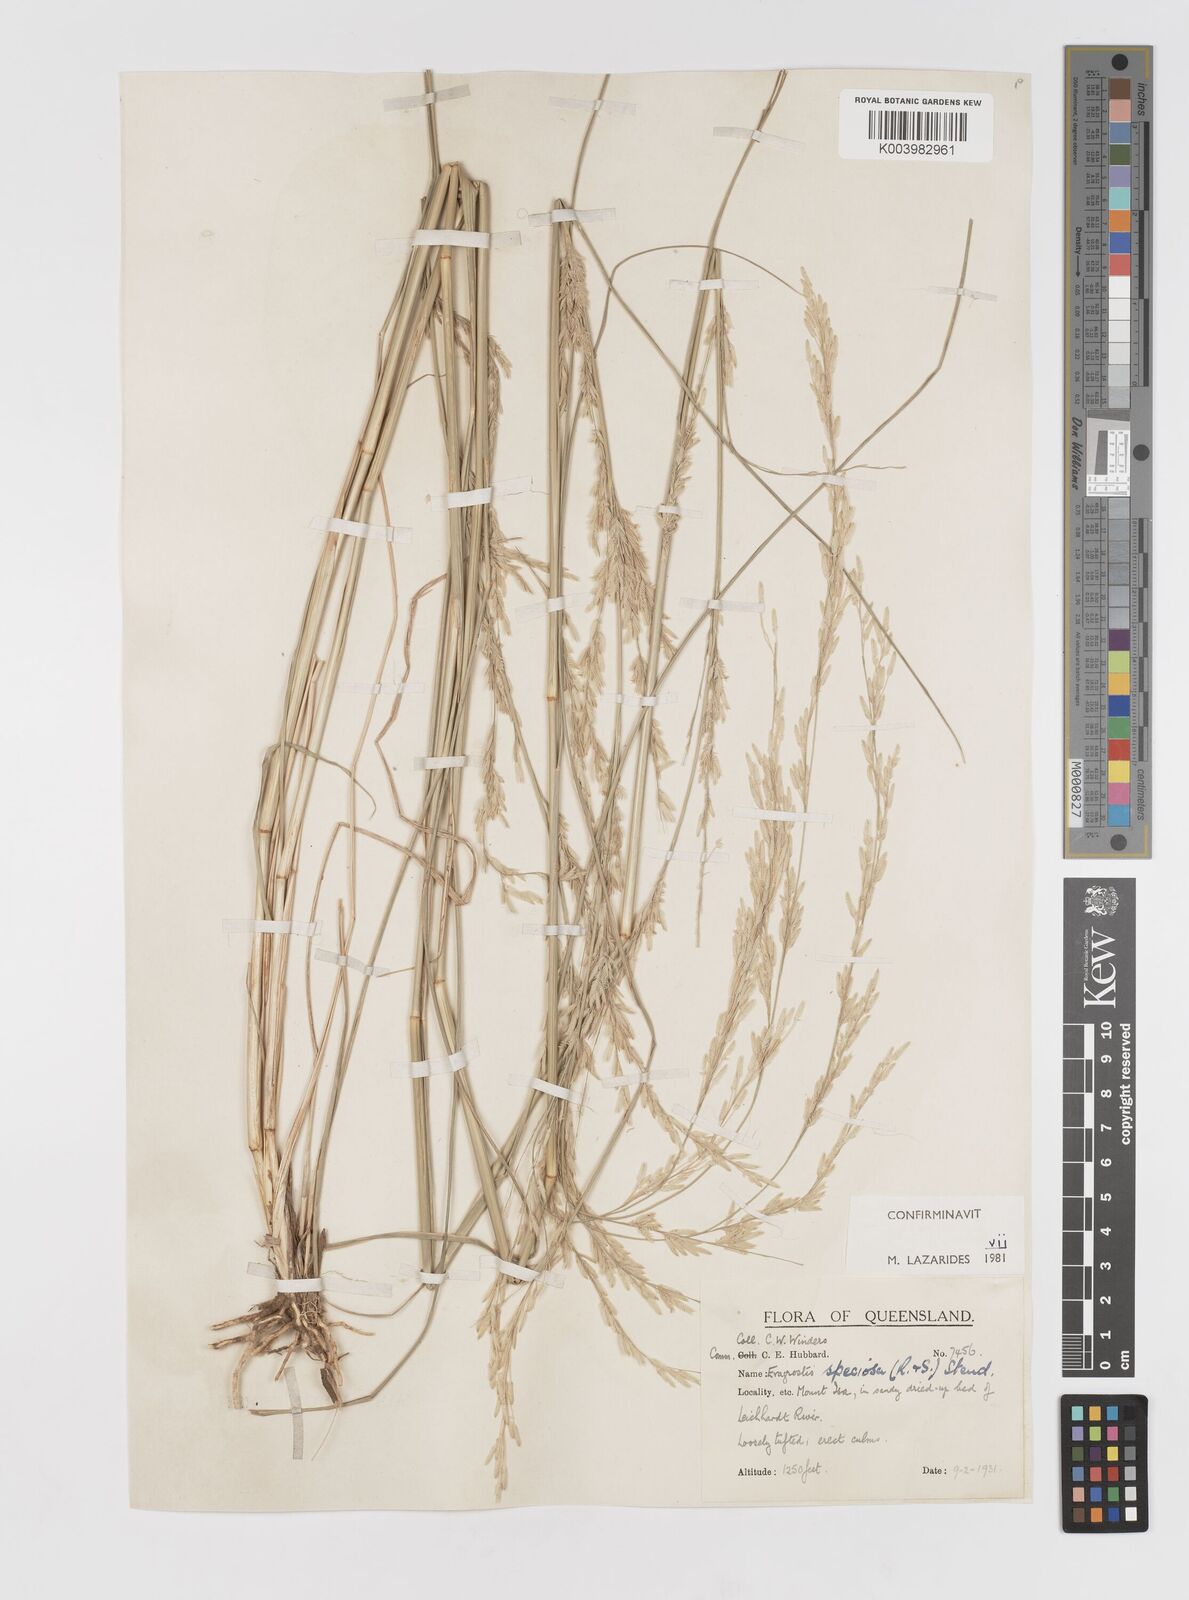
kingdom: Plantae
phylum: Tracheophyta
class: Liliopsida
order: Poales
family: Poaceae
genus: Eragrostis
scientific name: Eragrostis speciosa
